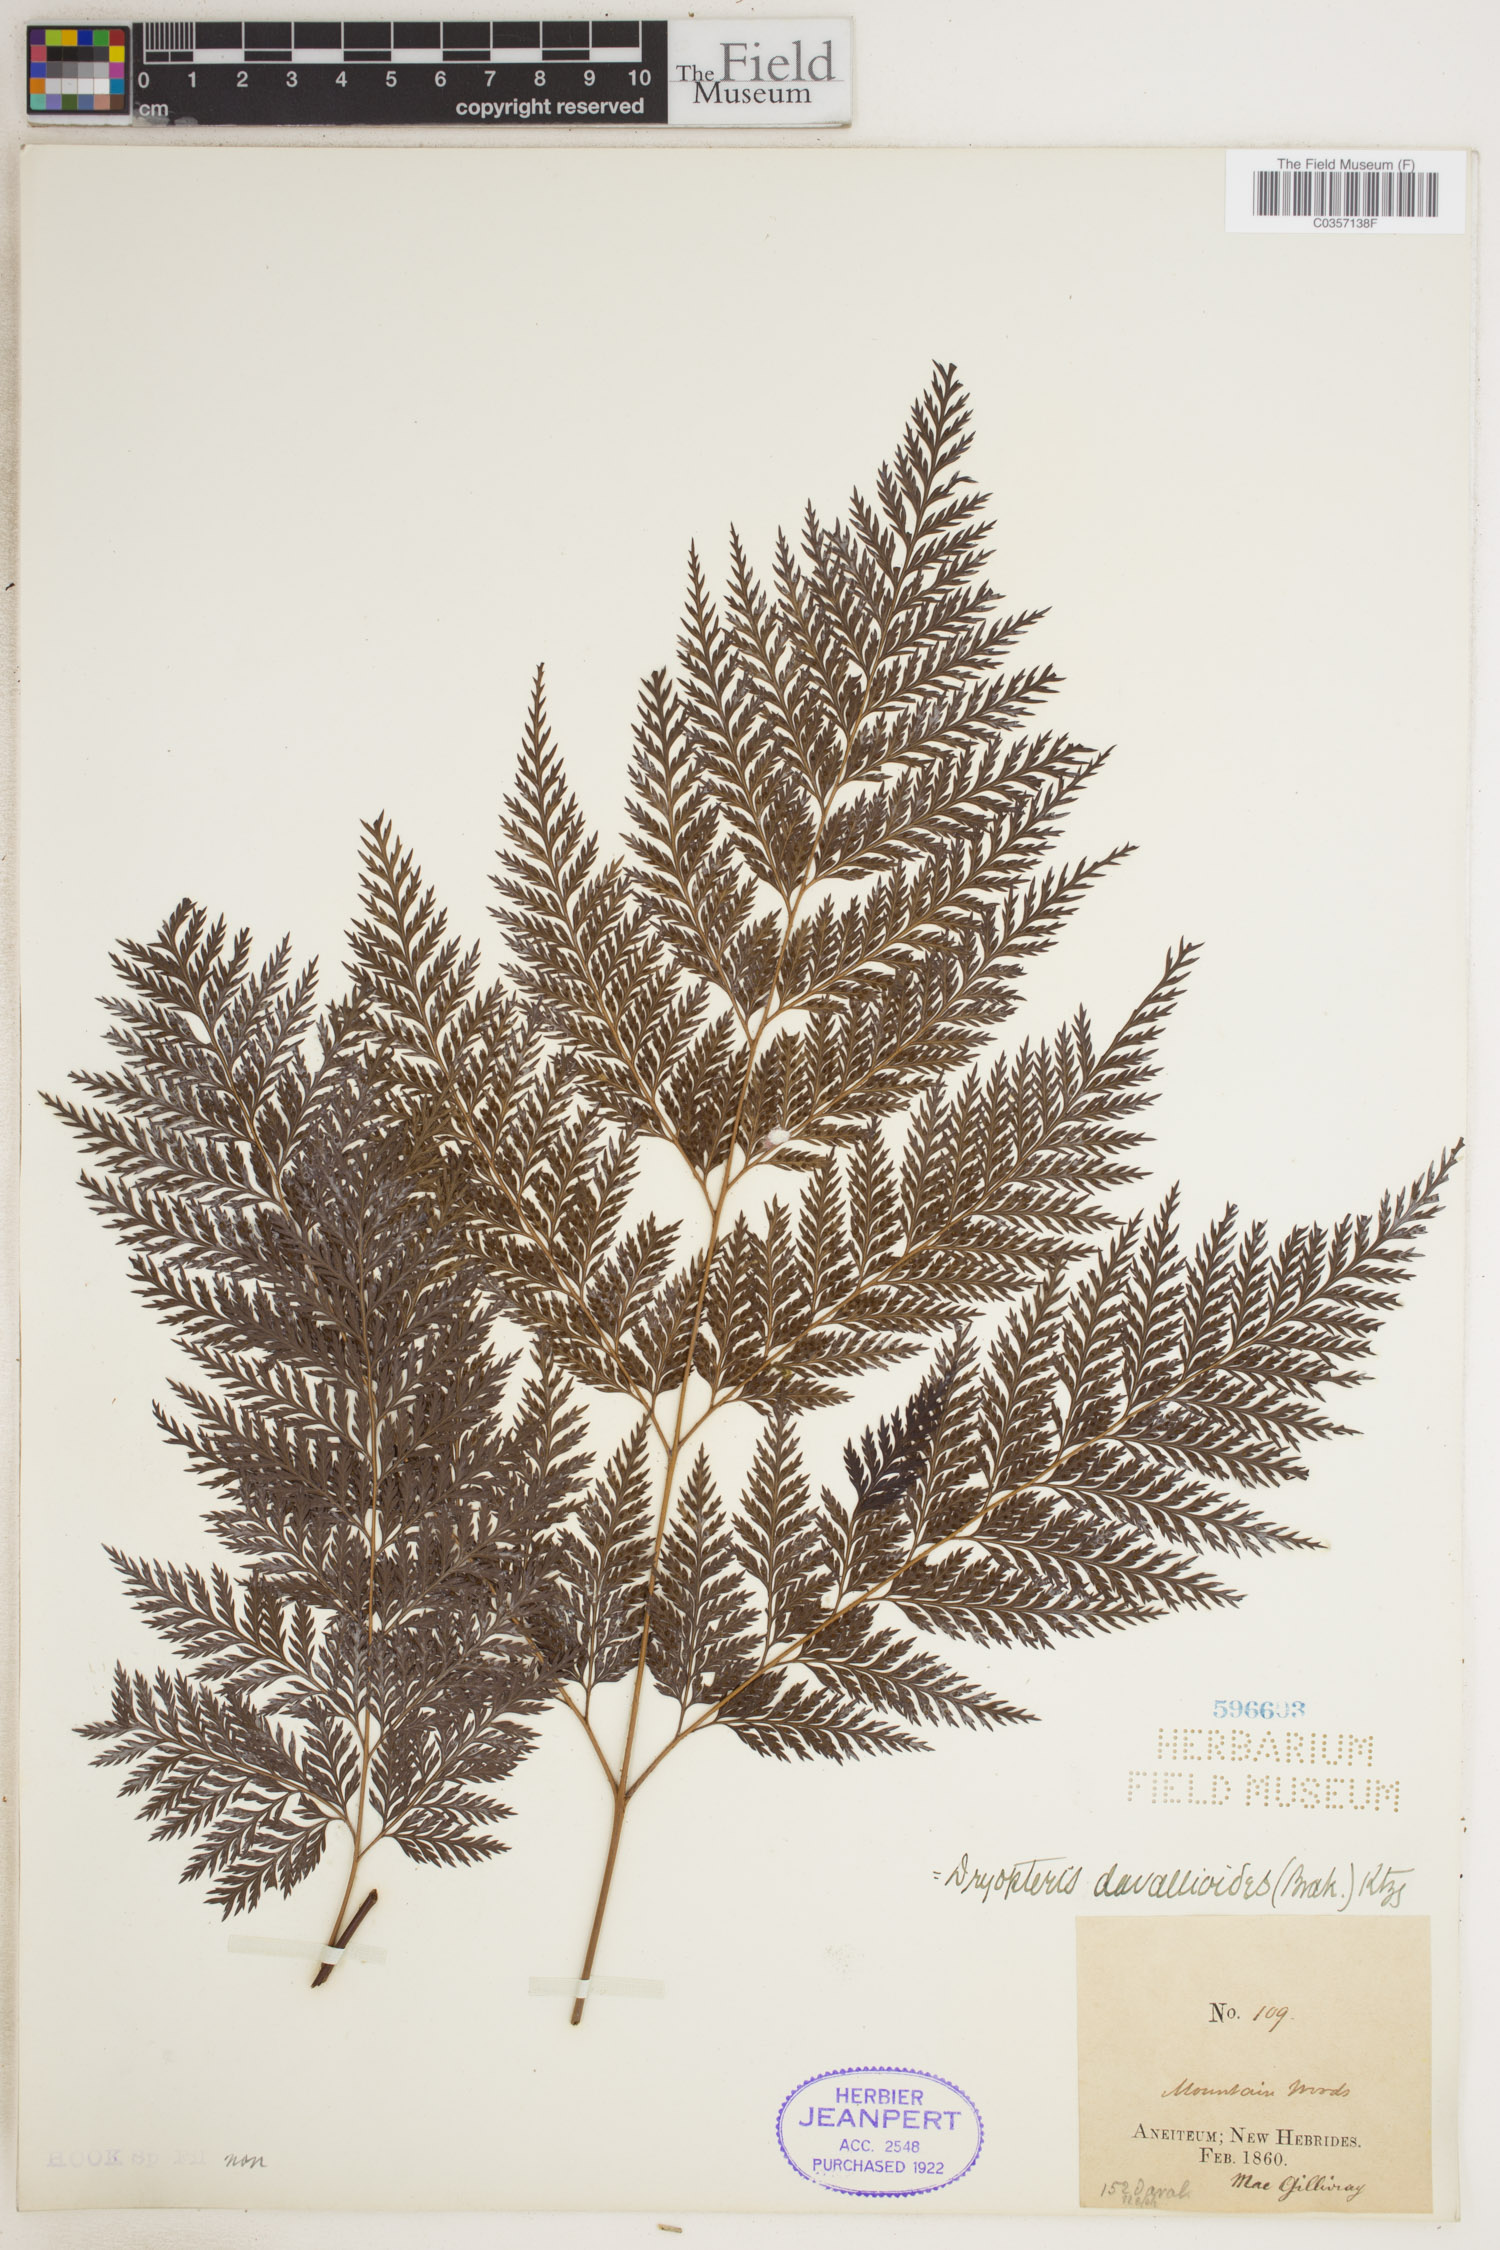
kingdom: Plantae
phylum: Tracheophyta
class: Polypodiopsida
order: Polypodiales
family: Dryopteridaceae
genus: Lastreopsis
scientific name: Lastreopsis davallioides
